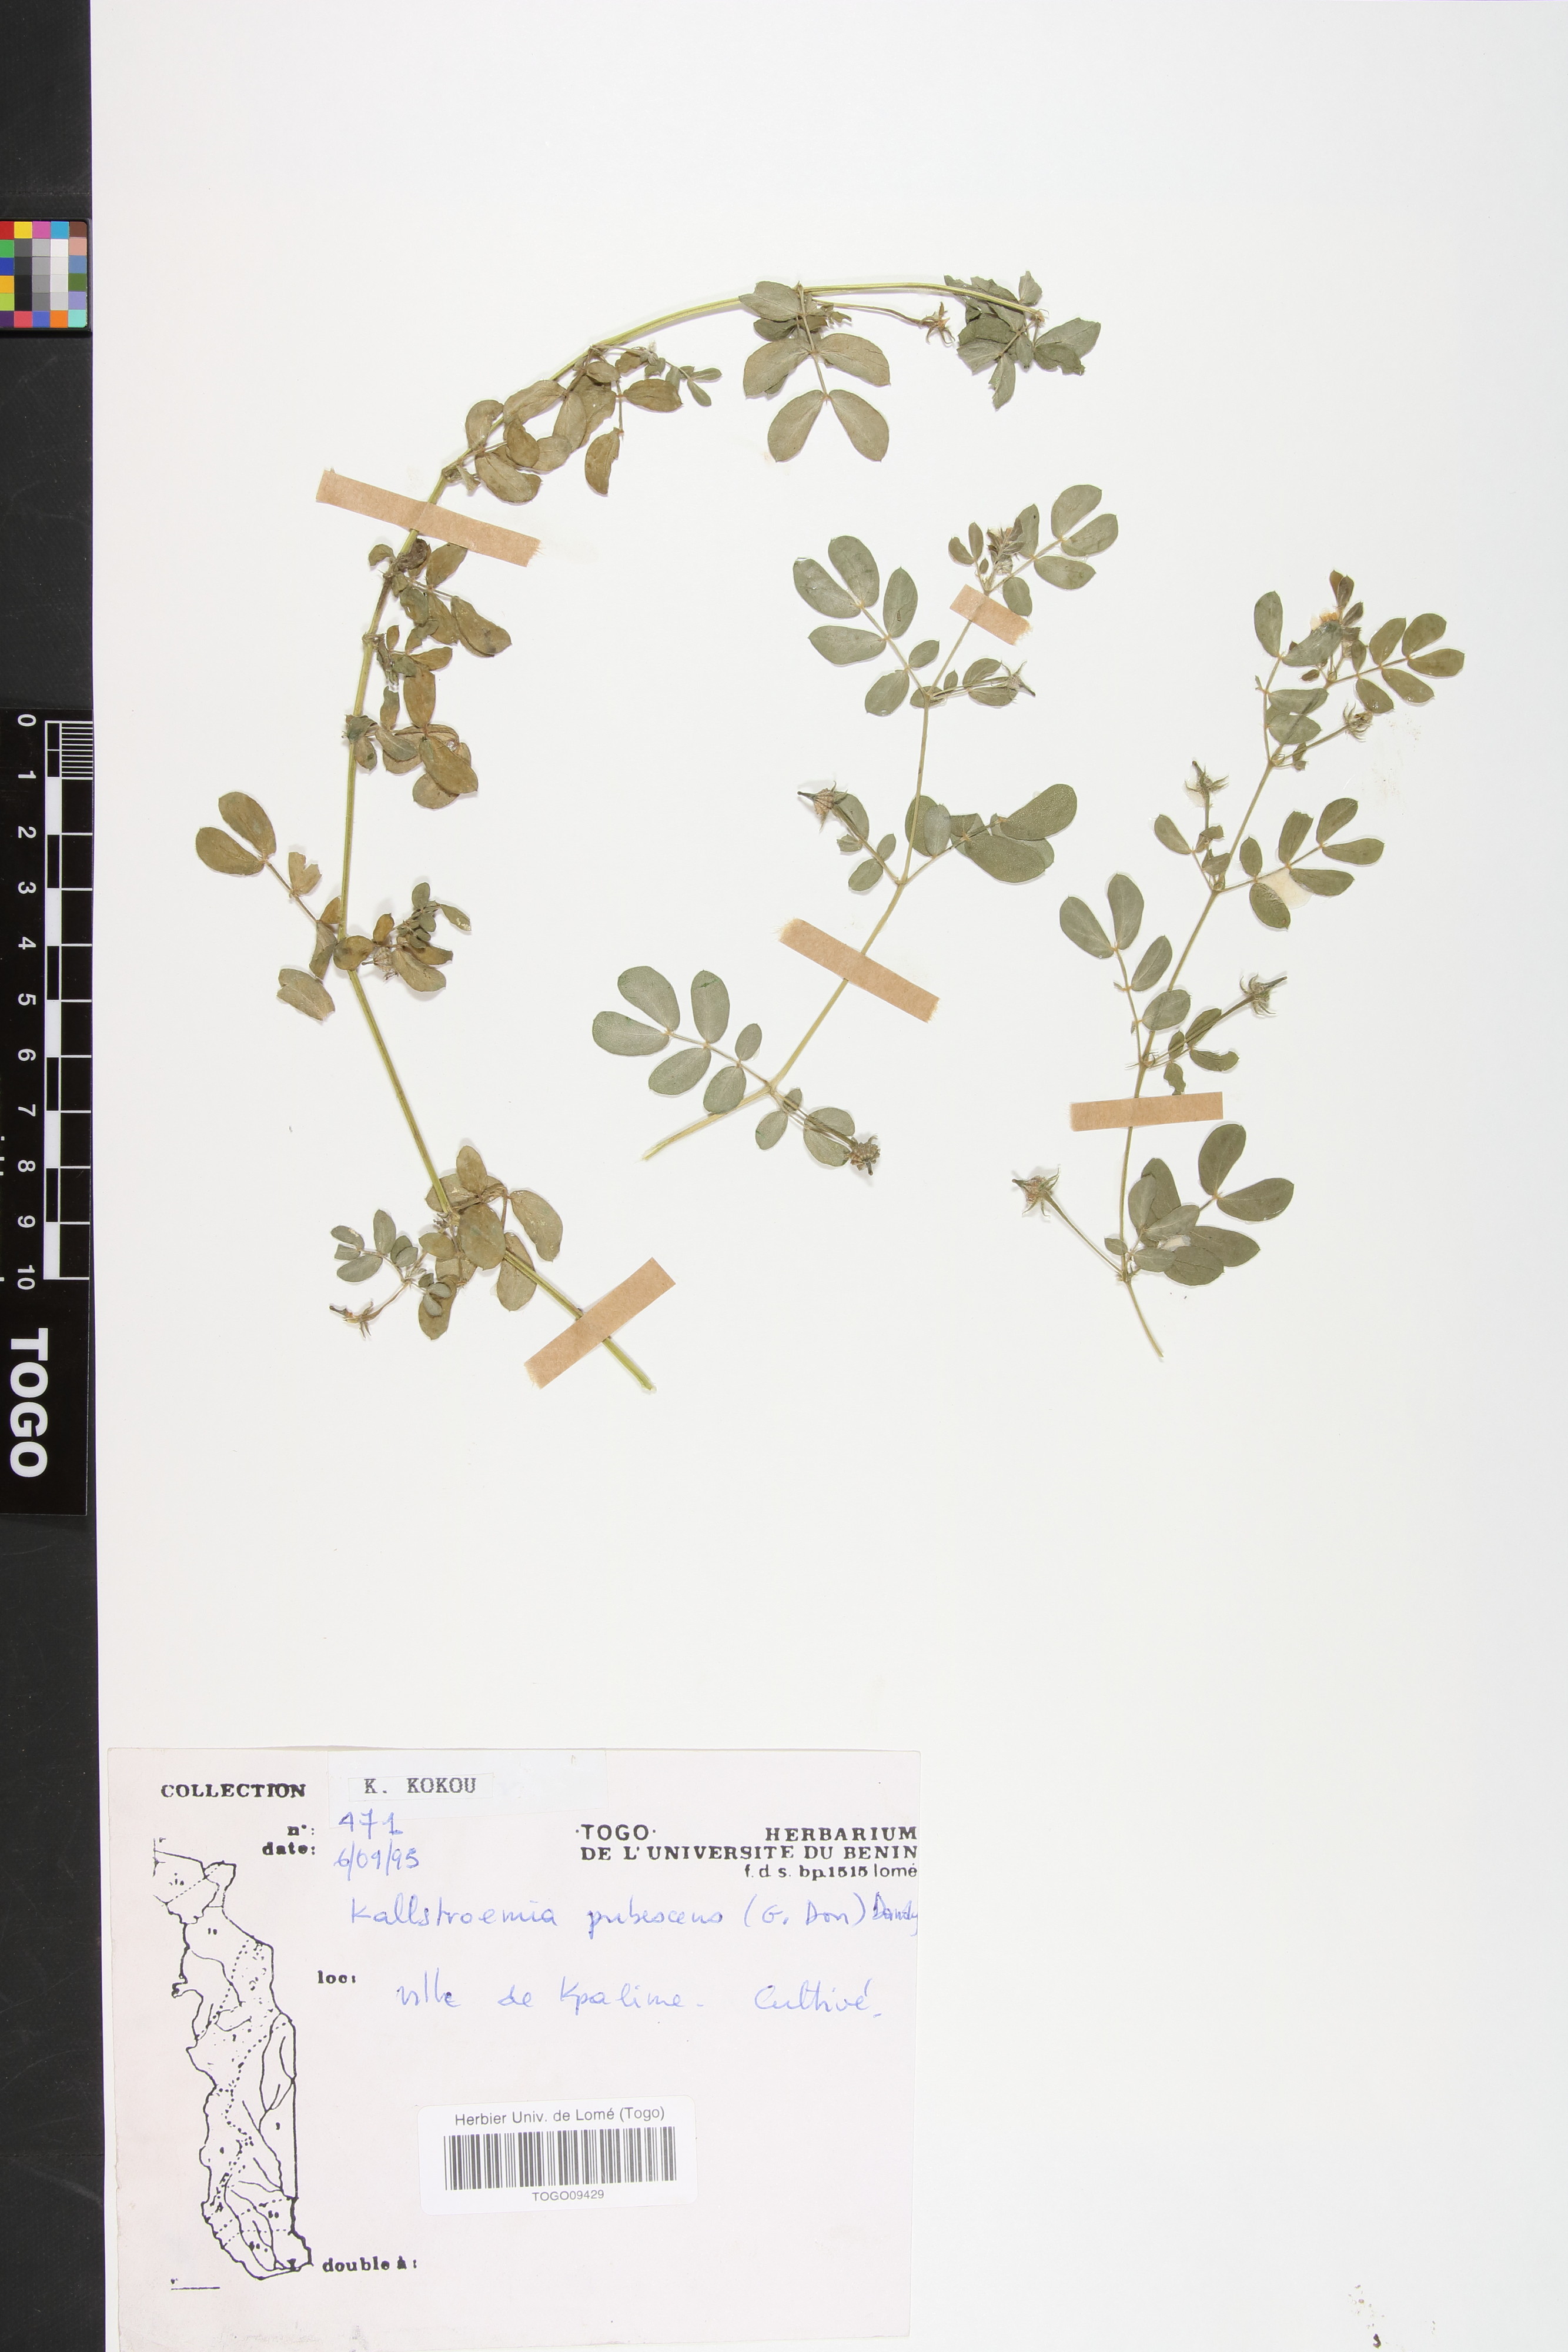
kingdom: Plantae
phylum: Tracheophyta
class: Magnoliopsida
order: Zygophyllales
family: Zygophyllaceae
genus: Kallstroemia
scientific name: Kallstroemia pubescens
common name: Caribbean caltrop
